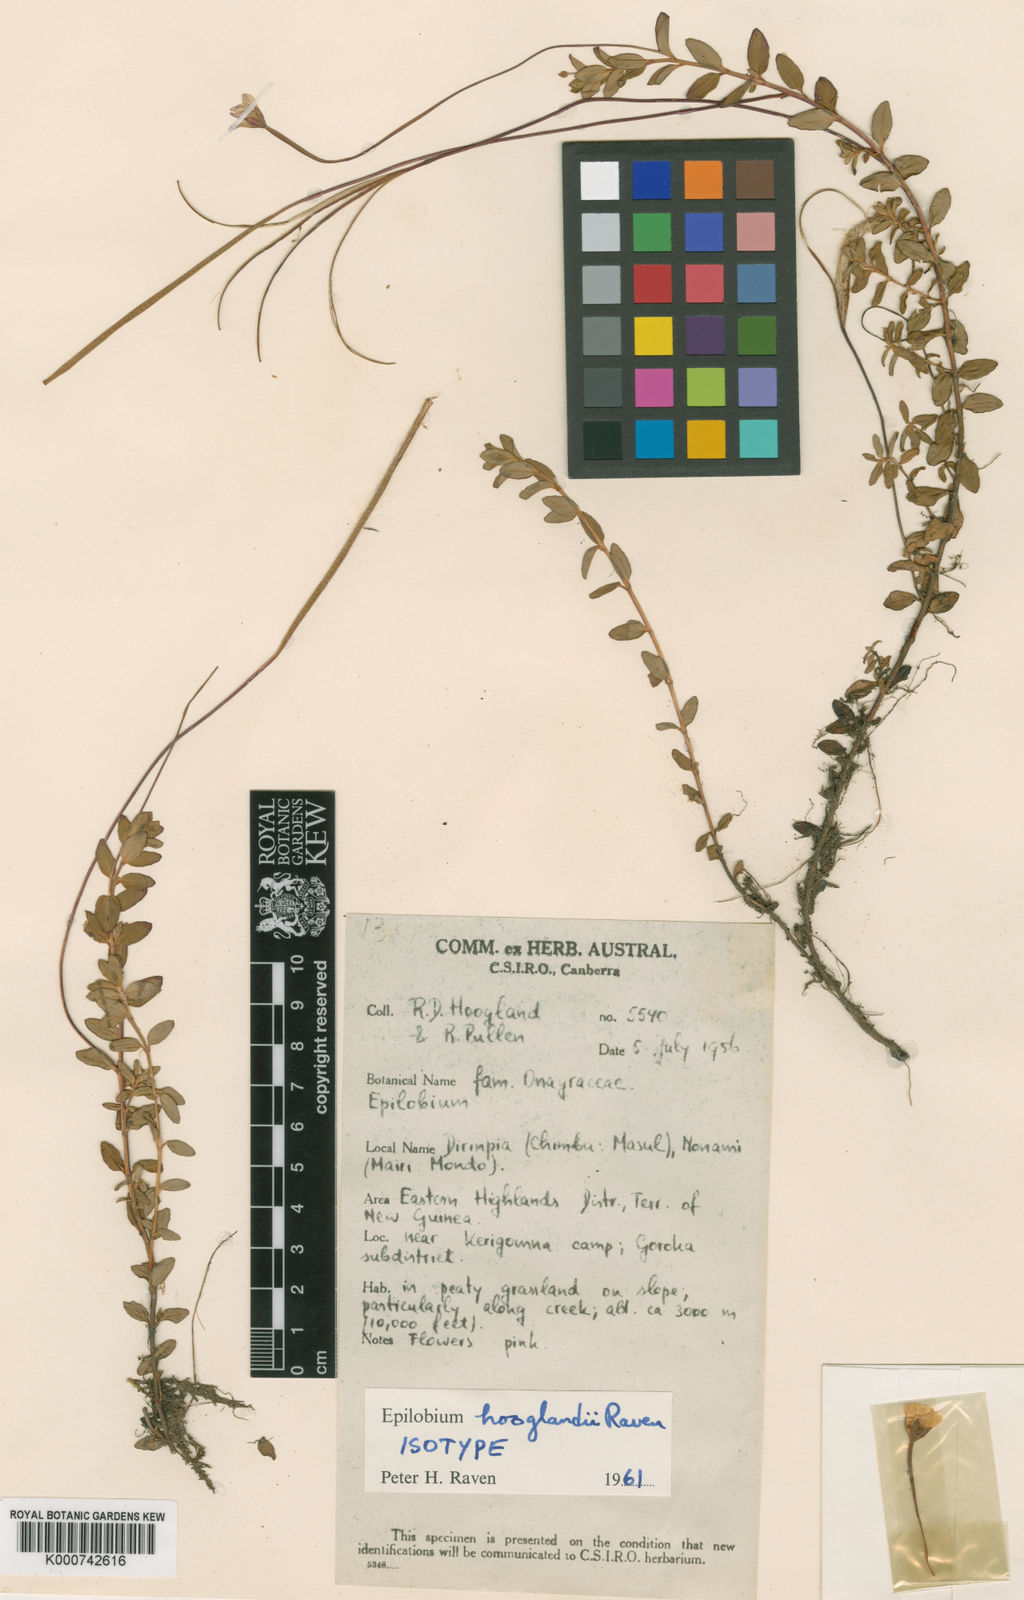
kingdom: Plantae
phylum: Tracheophyta
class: Magnoliopsida
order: Myrtales
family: Onagraceae
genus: Epilobium
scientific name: Epilobium hooglandii
